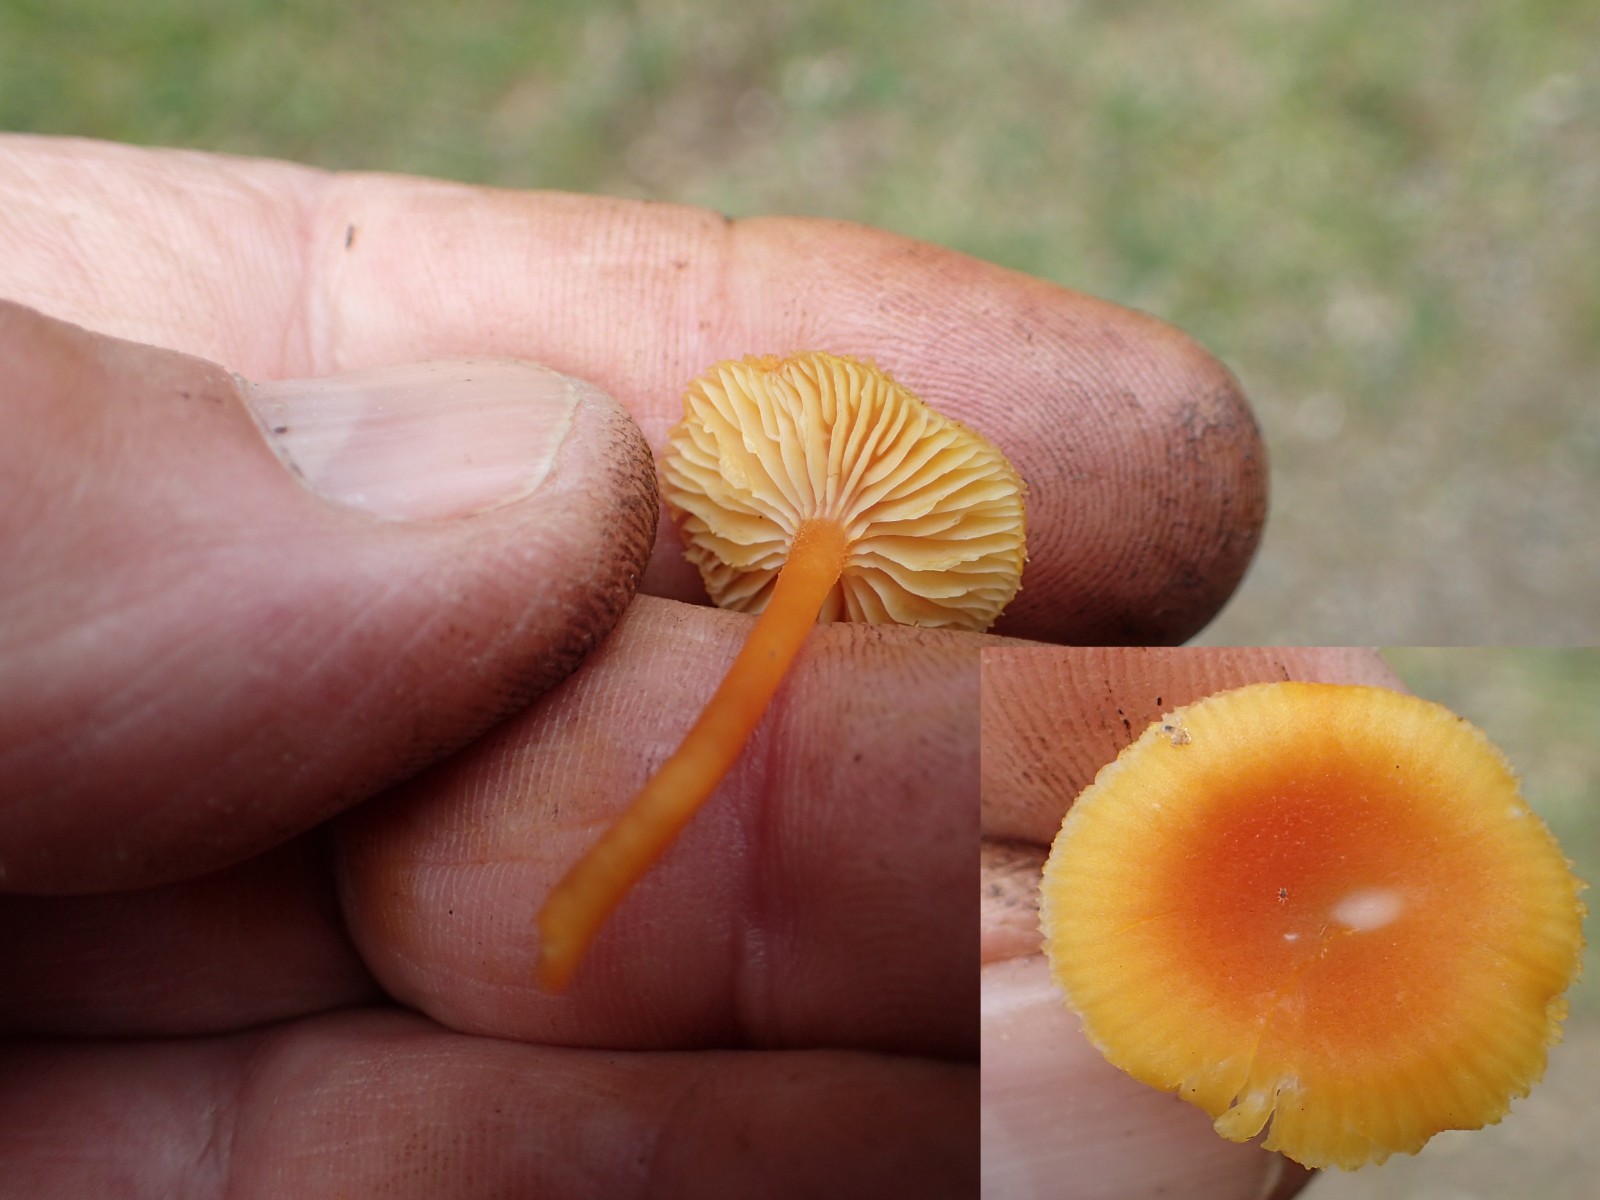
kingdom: Fungi
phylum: Basidiomycota
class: Agaricomycetes
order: Agaricales
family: Hygrophoraceae
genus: Hygrocybe
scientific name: Hygrocybe miniata
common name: mønje-vokshat
